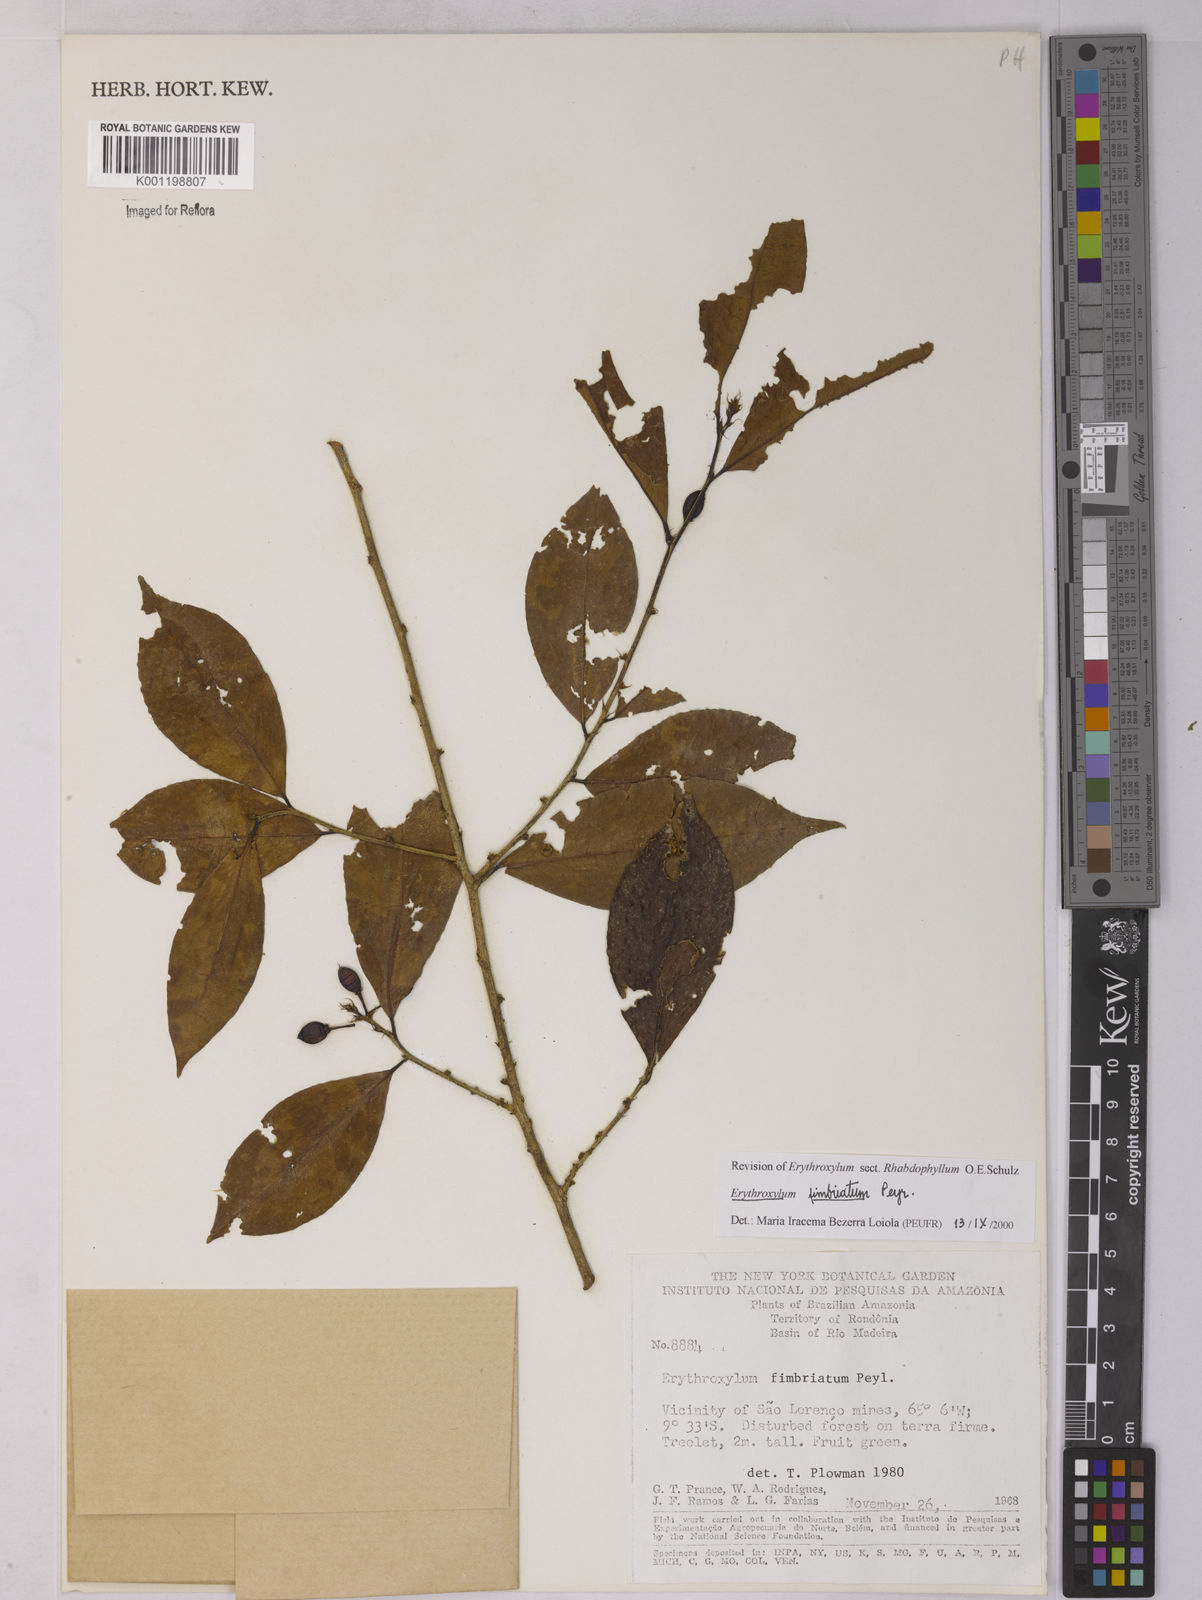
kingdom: Plantae
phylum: Tracheophyta
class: Magnoliopsida
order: Malpighiales
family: Erythroxylaceae
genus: Erythroxylum
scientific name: Erythroxylum fimbriatum
